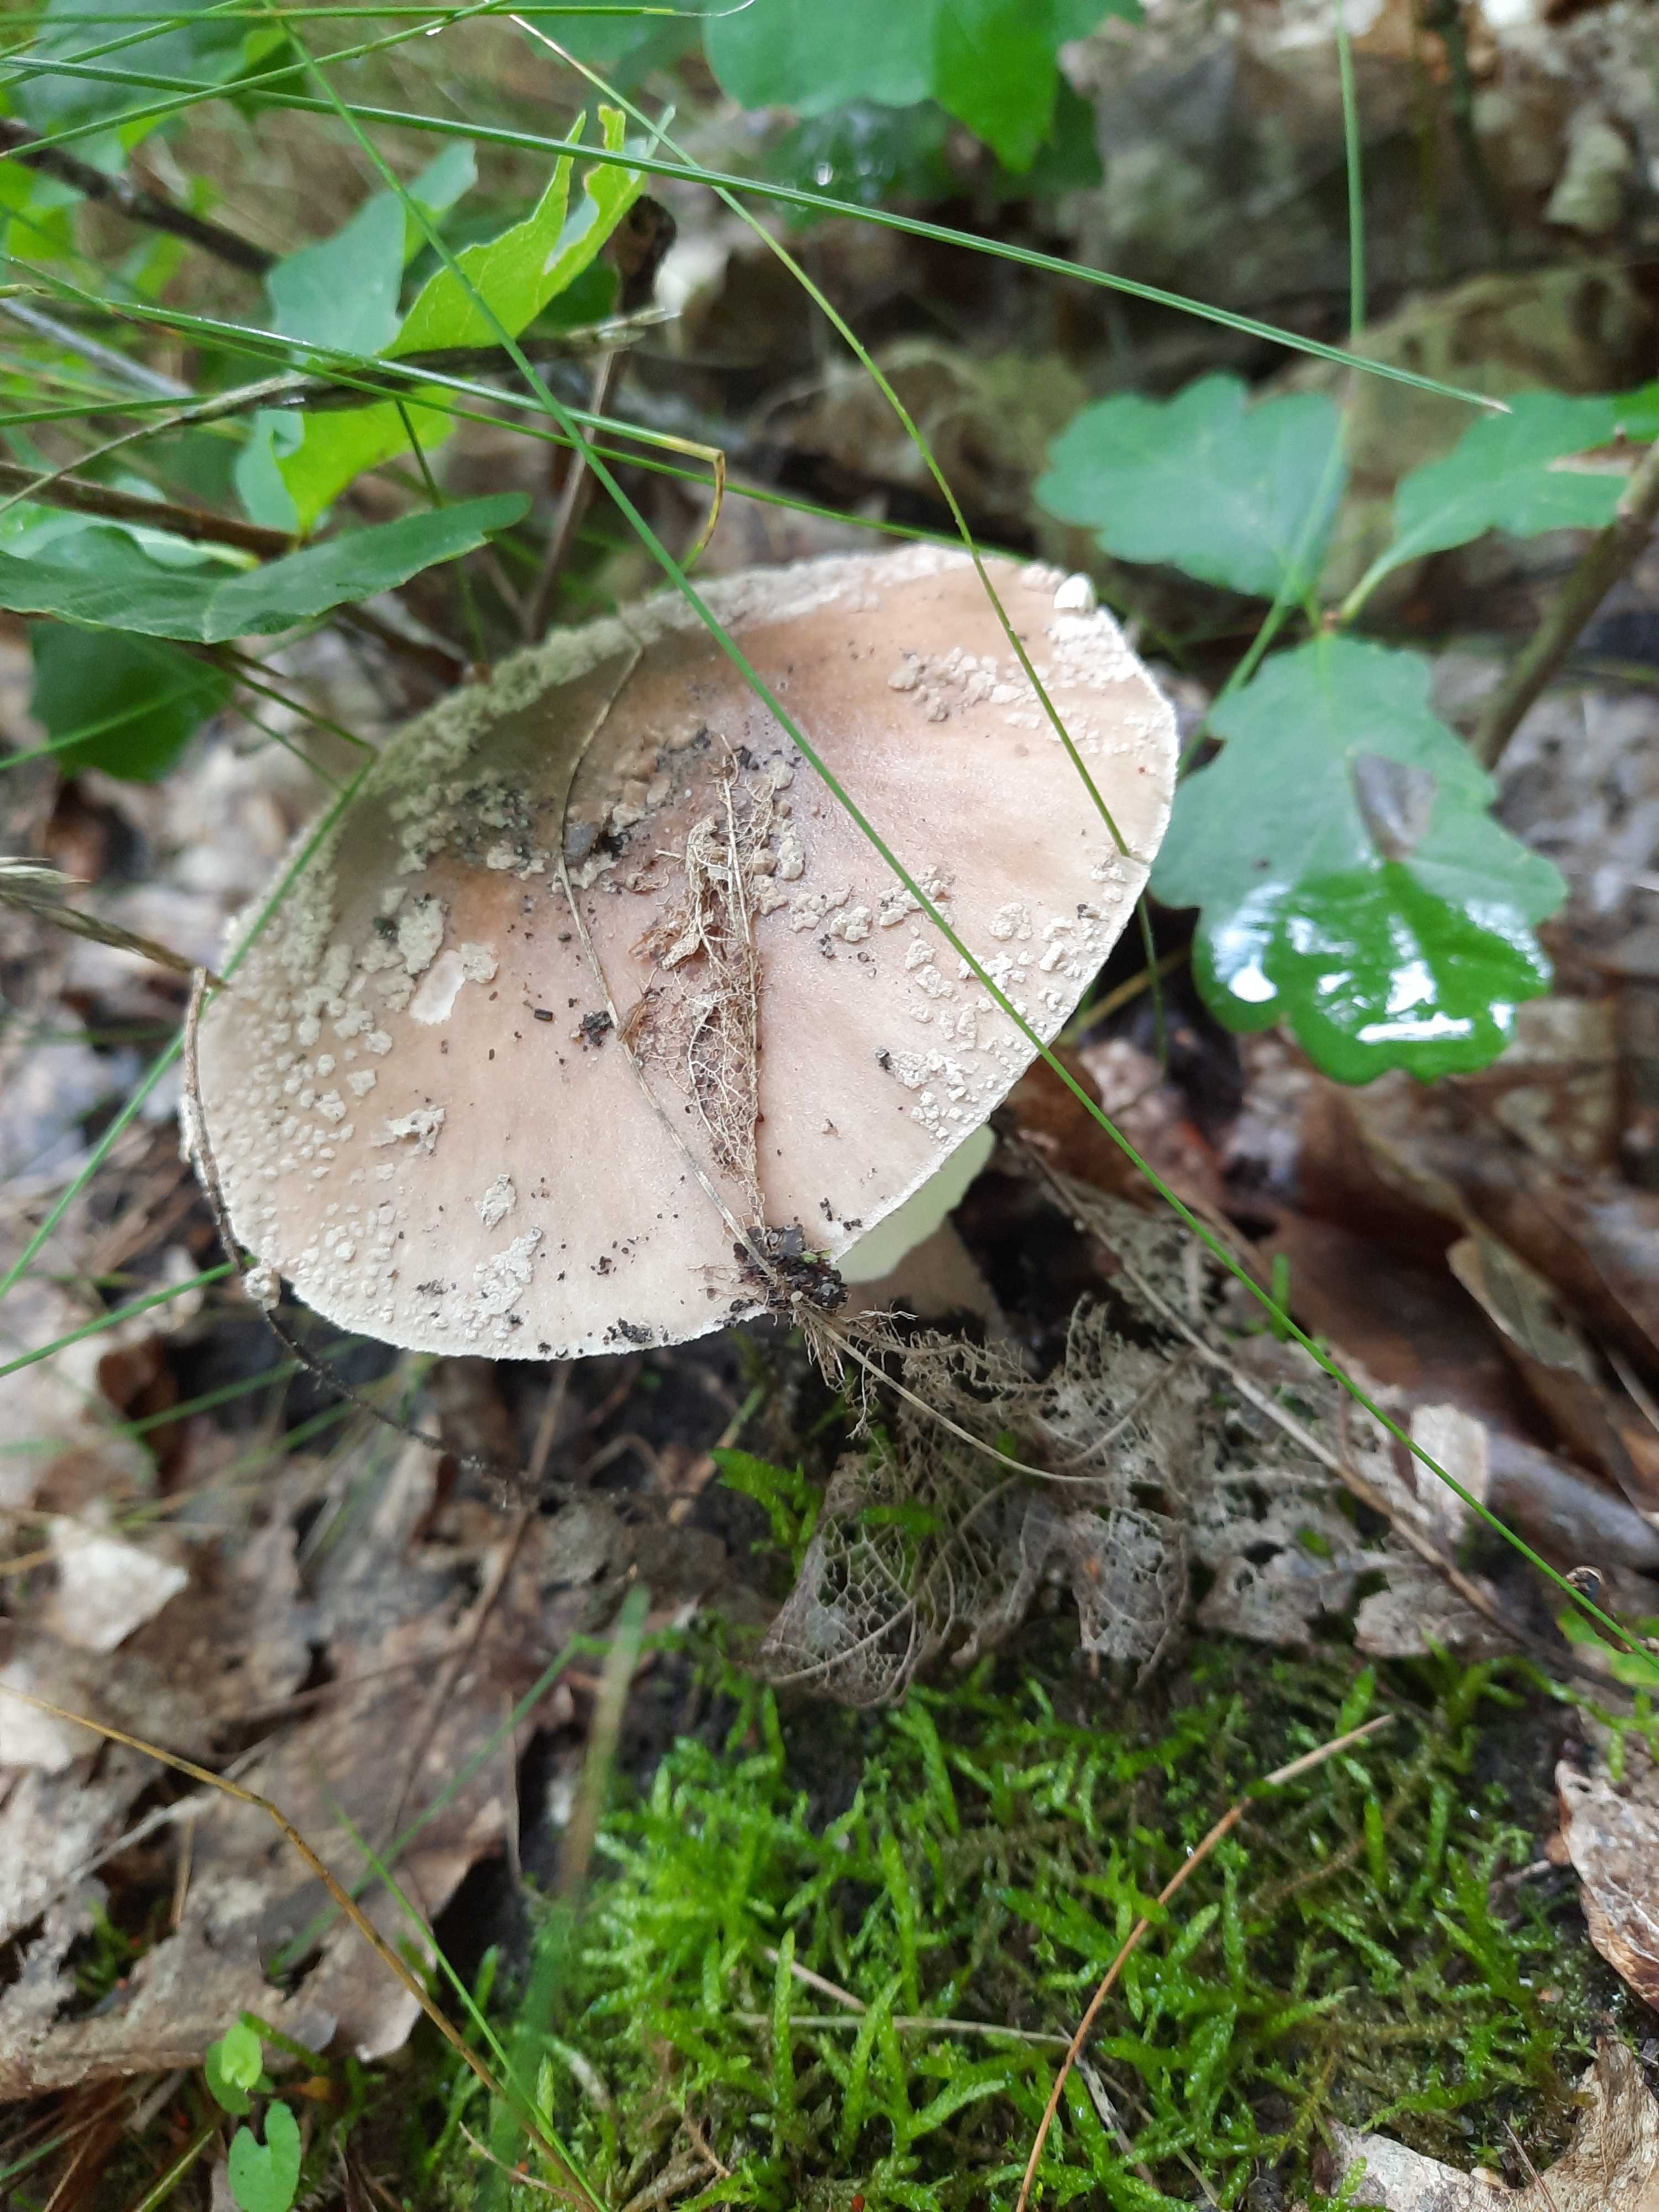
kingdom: Fungi
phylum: Basidiomycota
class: Agaricomycetes
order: Agaricales
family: Amanitaceae
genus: Amanita
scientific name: Amanita rubescens
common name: rødmende fluesvamp
